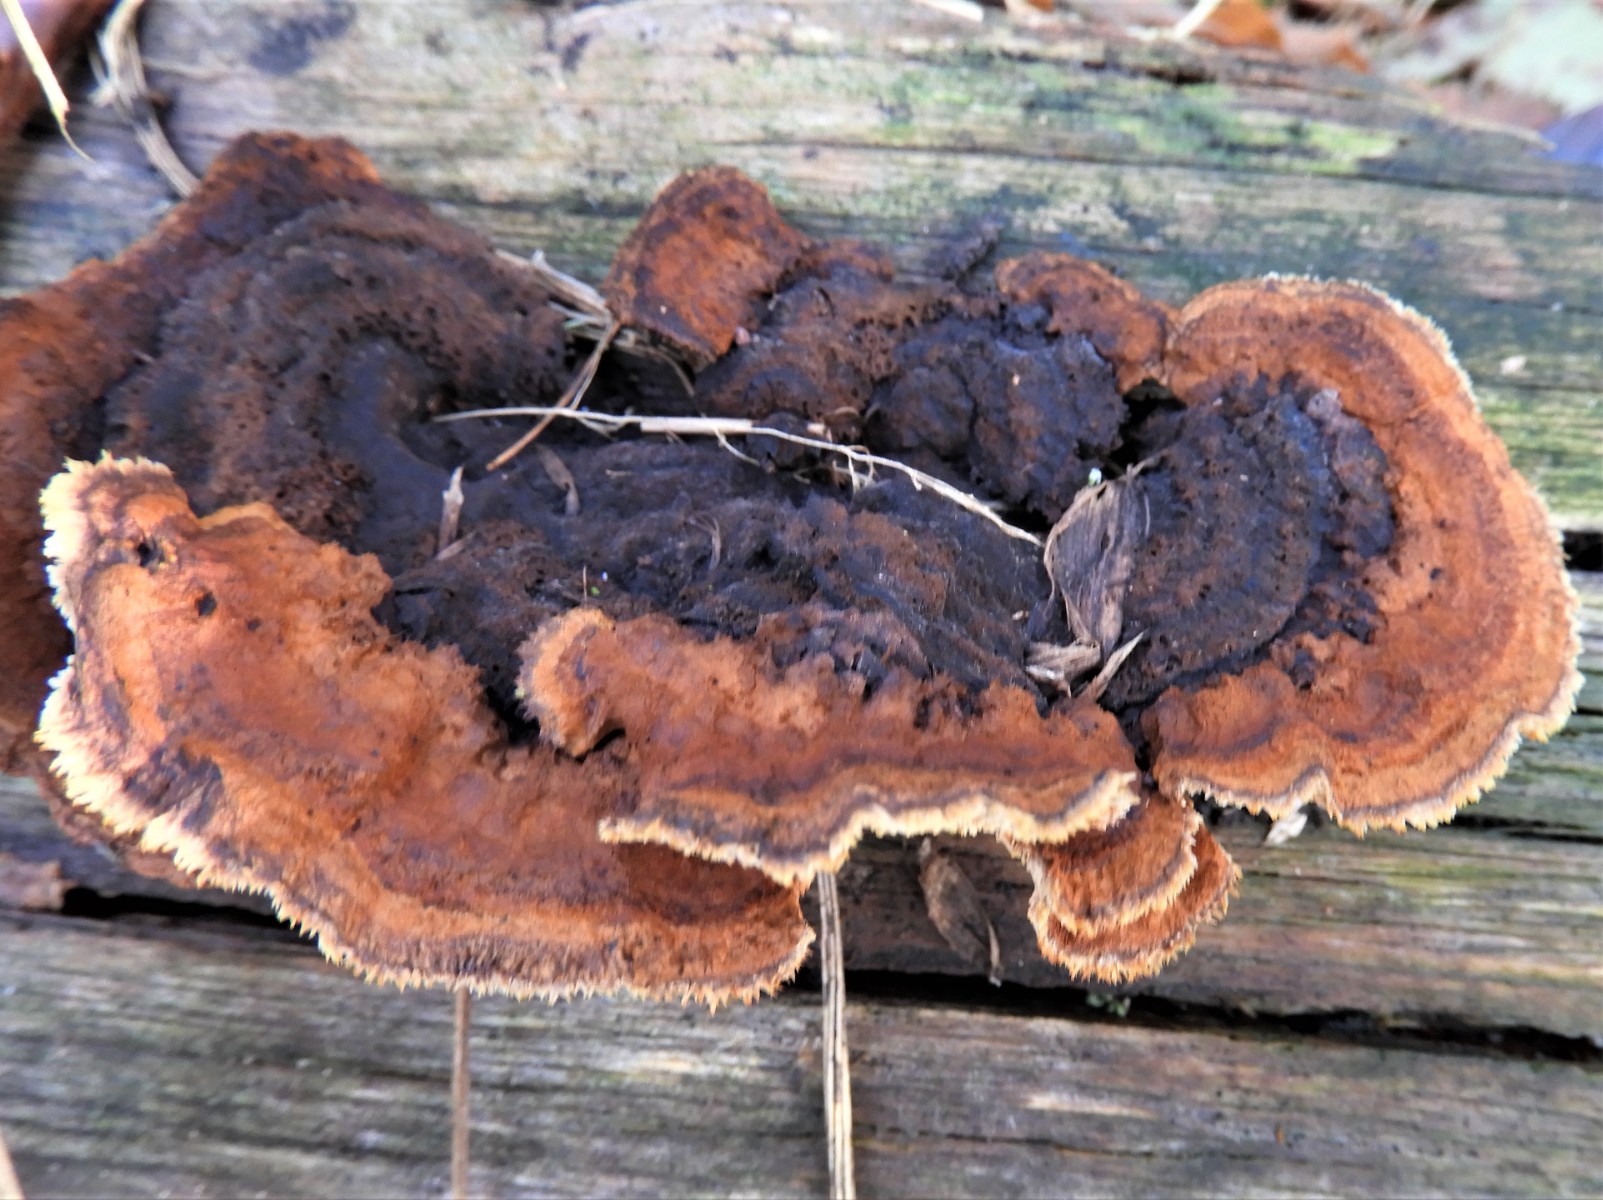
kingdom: Fungi
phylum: Basidiomycota
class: Agaricomycetes
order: Gloeophyllales
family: Gloeophyllaceae
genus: Gloeophyllum
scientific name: Gloeophyllum sepiarium
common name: fyrre-korkhat
